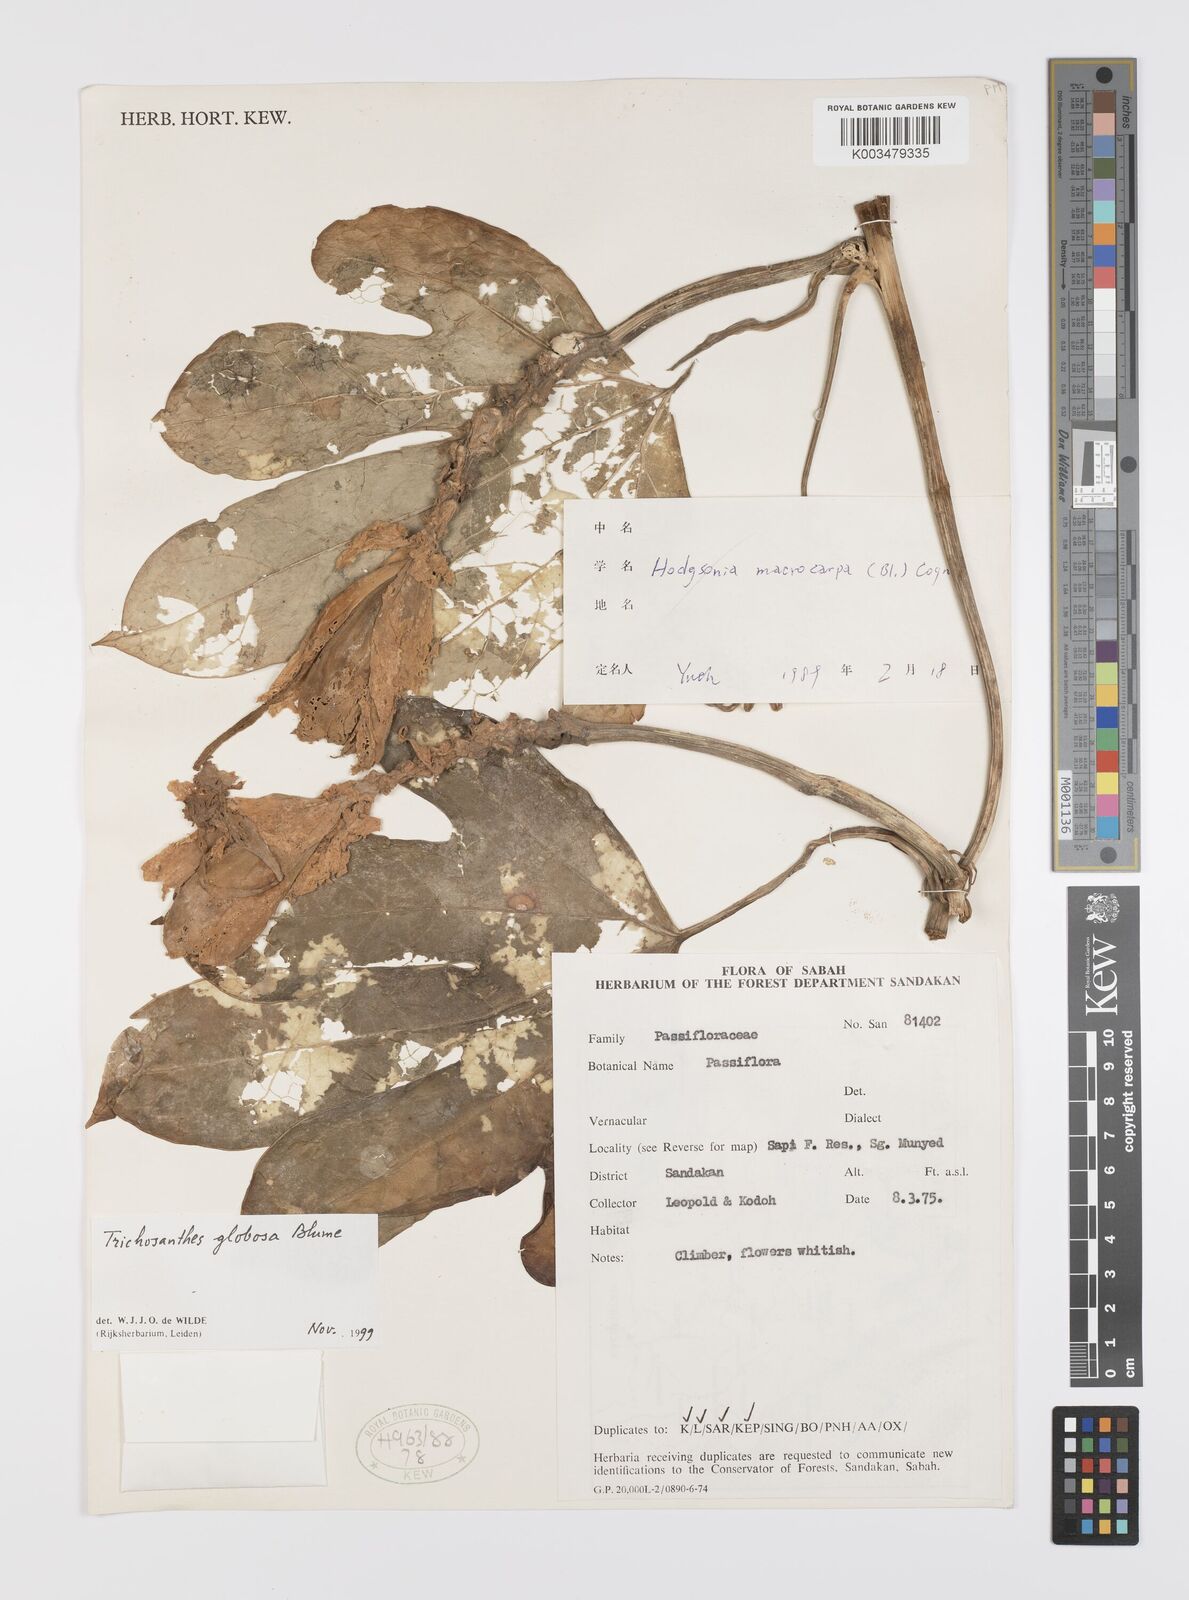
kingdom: Plantae
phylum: Tracheophyta
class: Magnoliopsida
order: Cucurbitales
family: Cucurbitaceae
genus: Trichosanthes
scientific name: Trichosanthes globosa
